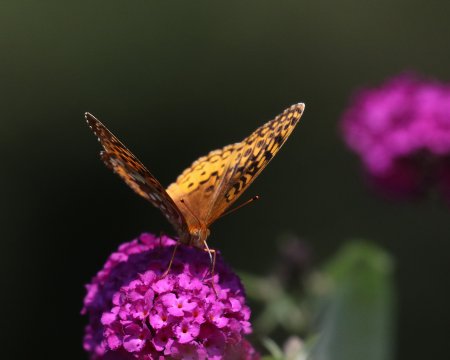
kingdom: Animalia
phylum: Arthropoda
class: Insecta
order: Lepidoptera
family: Nymphalidae
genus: Speyeria
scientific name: Speyeria cybele
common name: Great Spangled Fritillary
